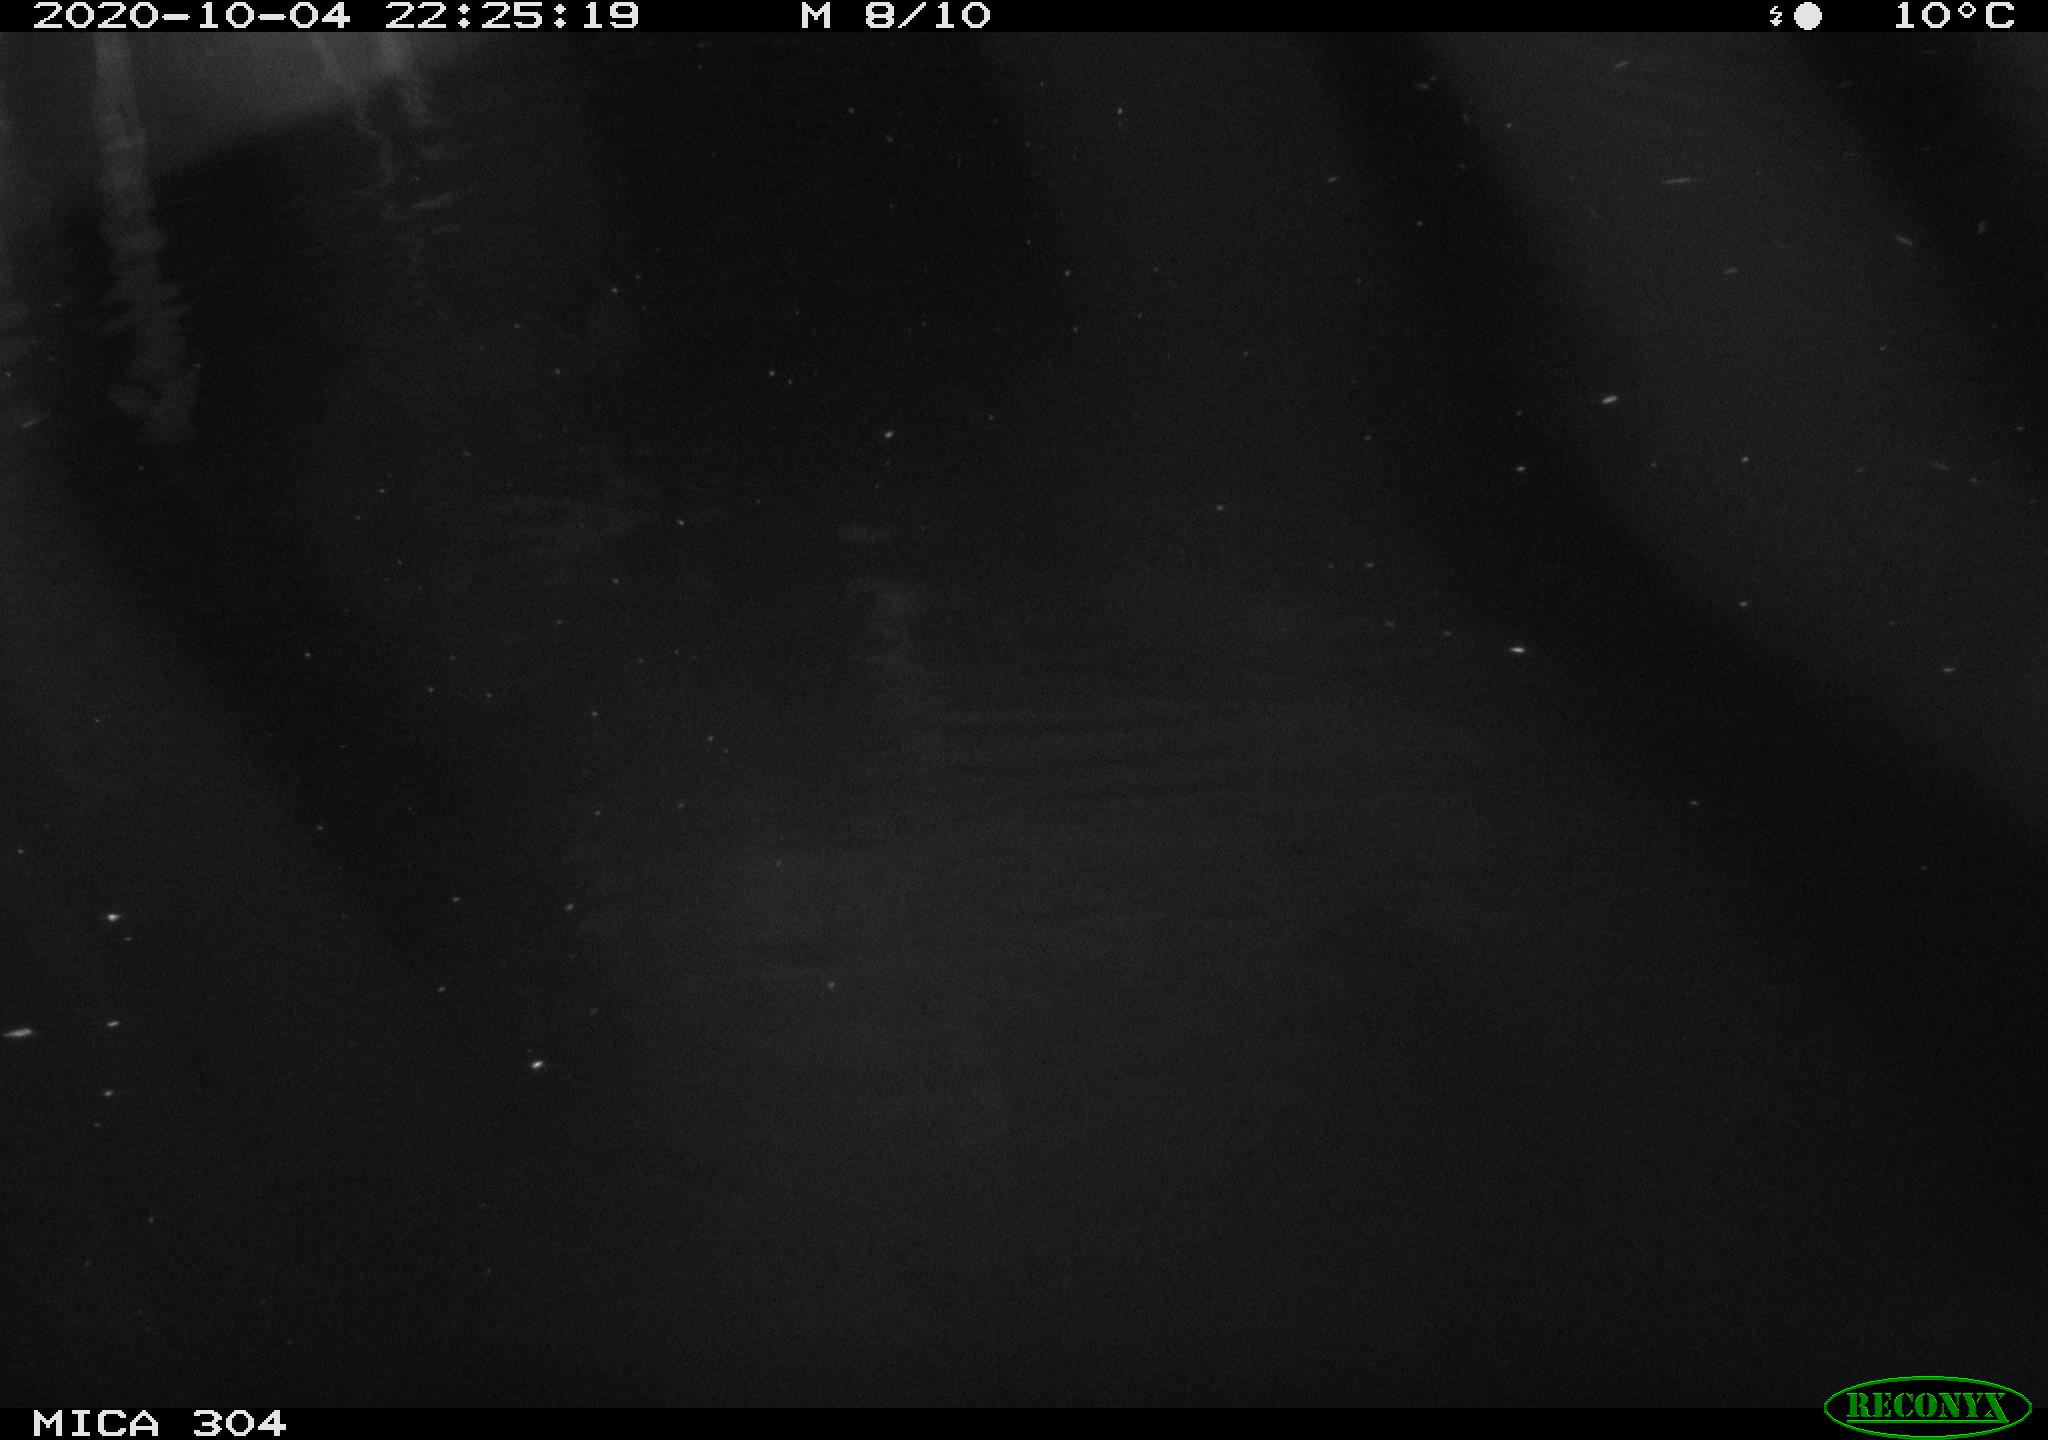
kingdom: Animalia
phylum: Chordata
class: Mammalia
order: Rodentia
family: Muridae
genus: Rattus
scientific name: Rattus norvegicus
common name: Brown rat
